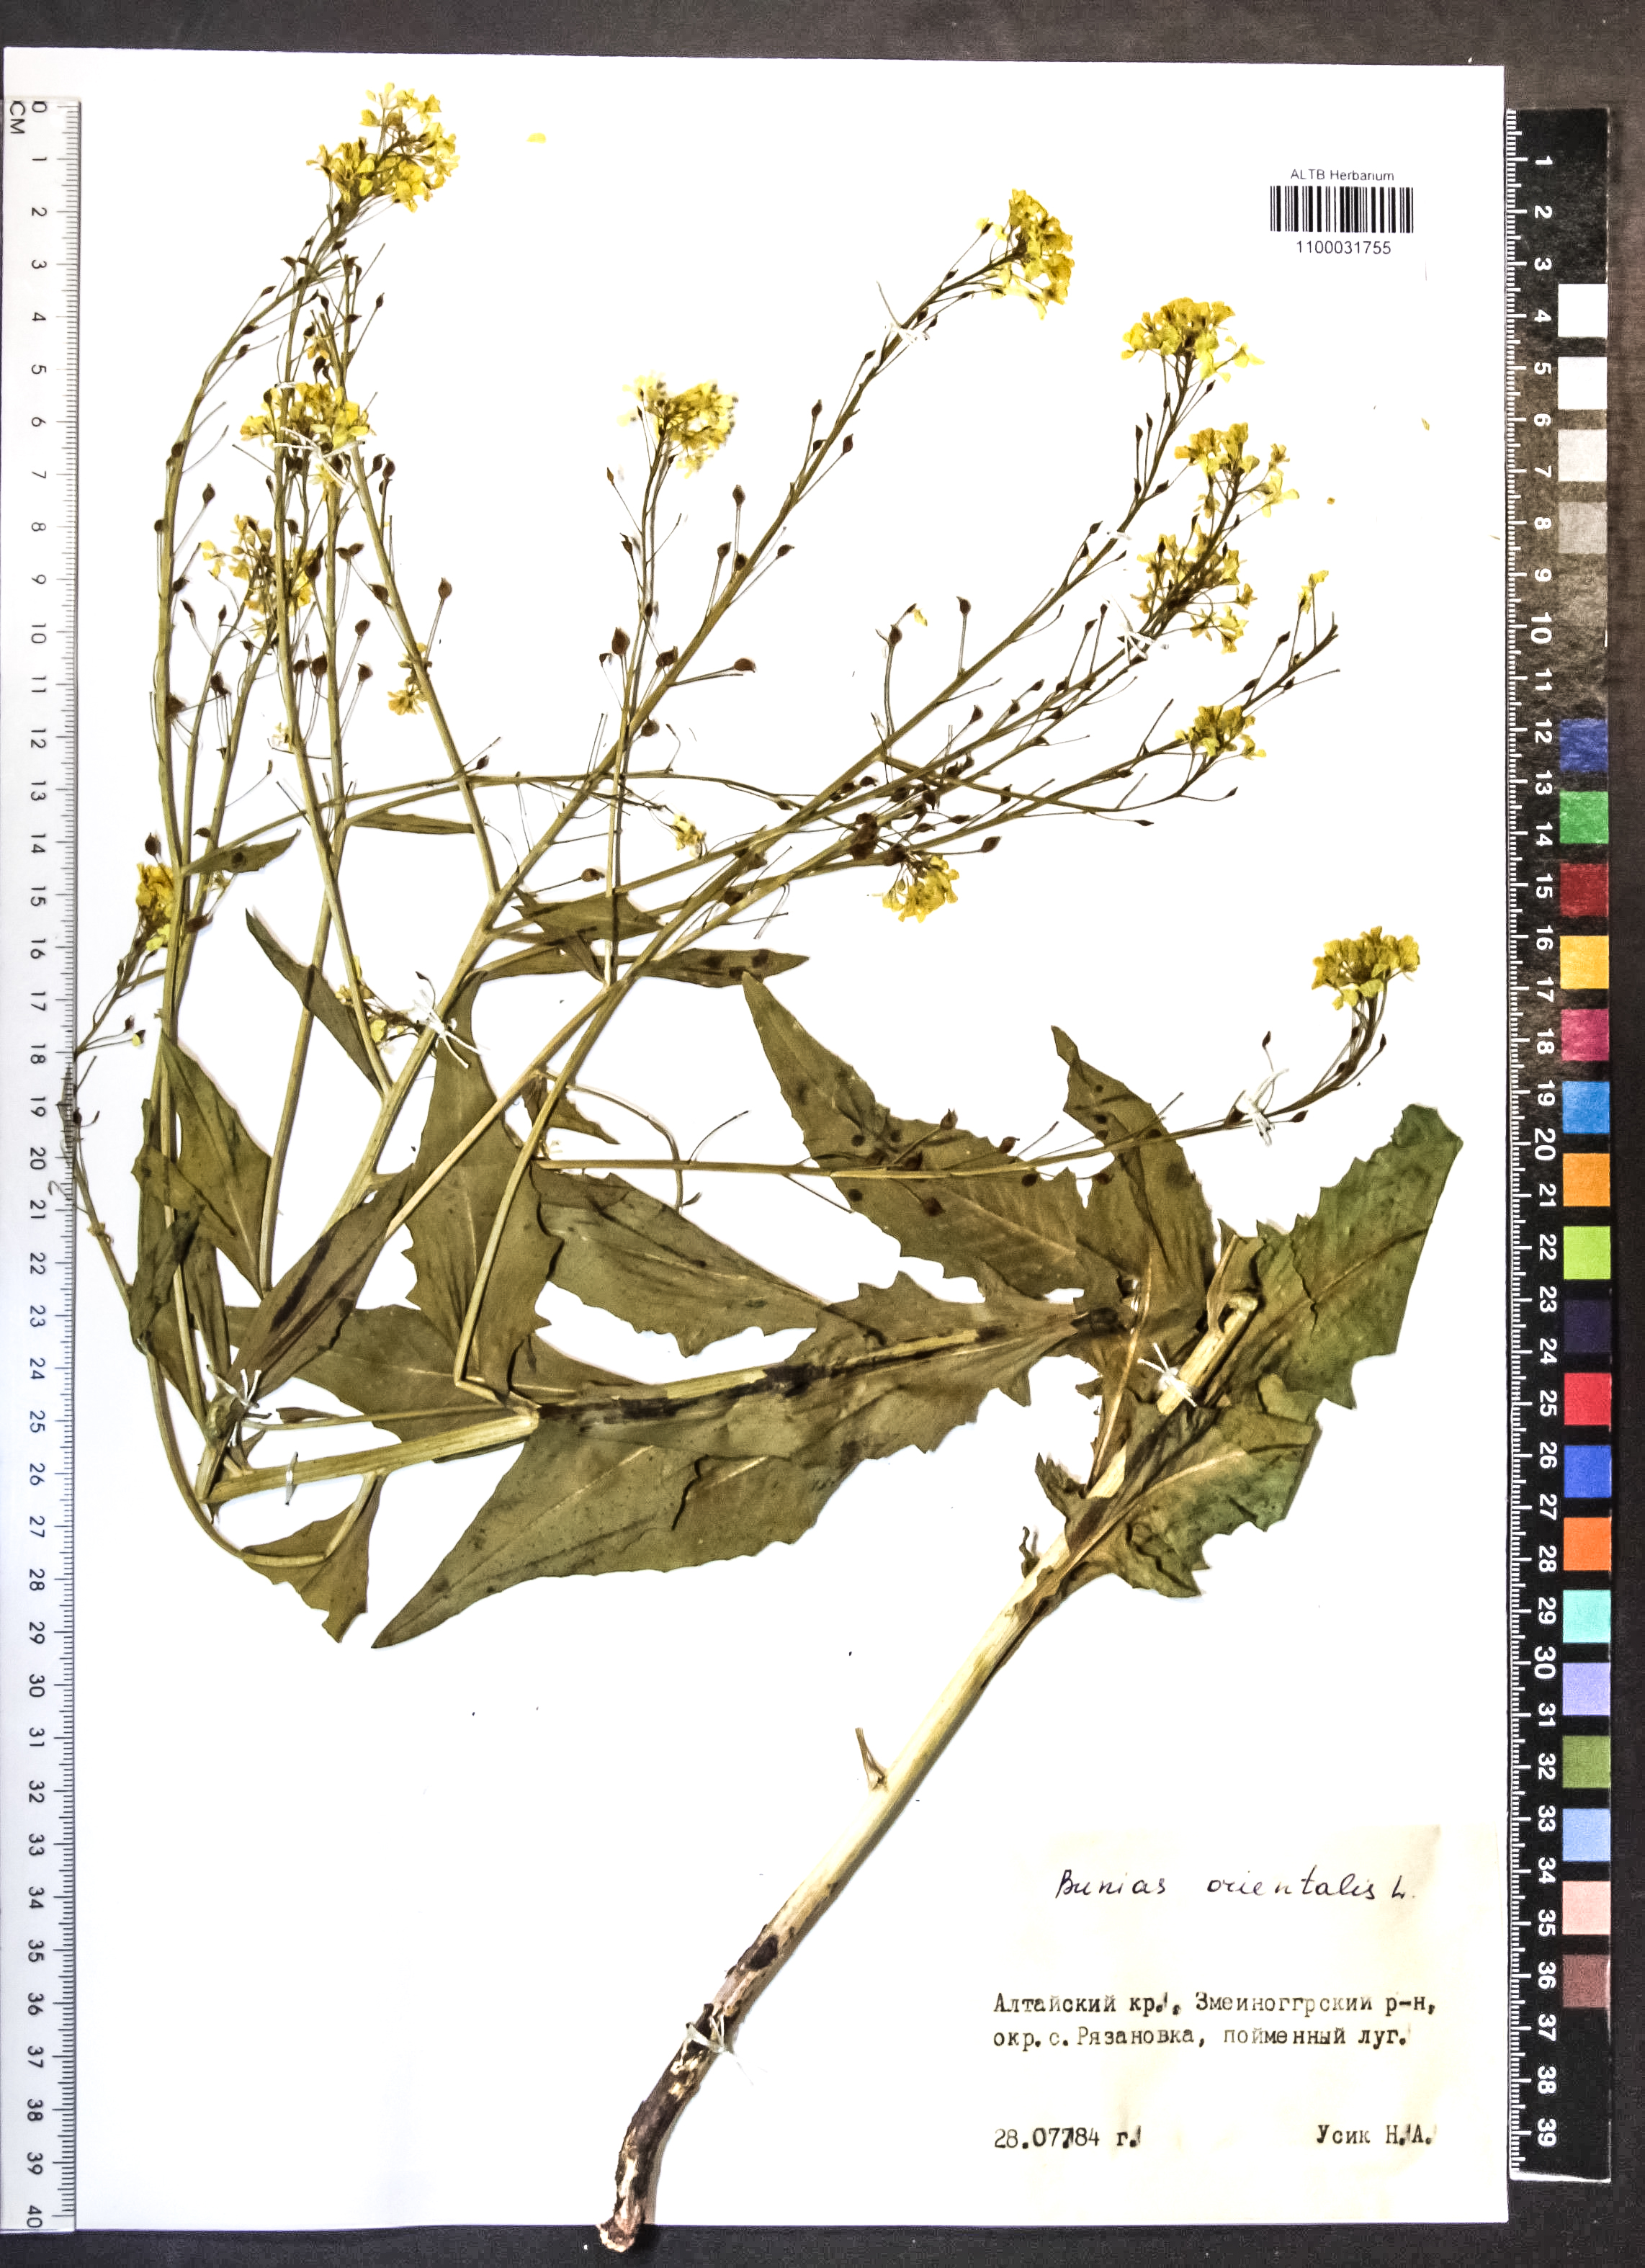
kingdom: Plantae
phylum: Tracheophyta
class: Magnoliopsida
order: Brassicales
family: Brassicaceae
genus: Bunias
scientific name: Bunias orientalis
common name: Warty-cabbage
